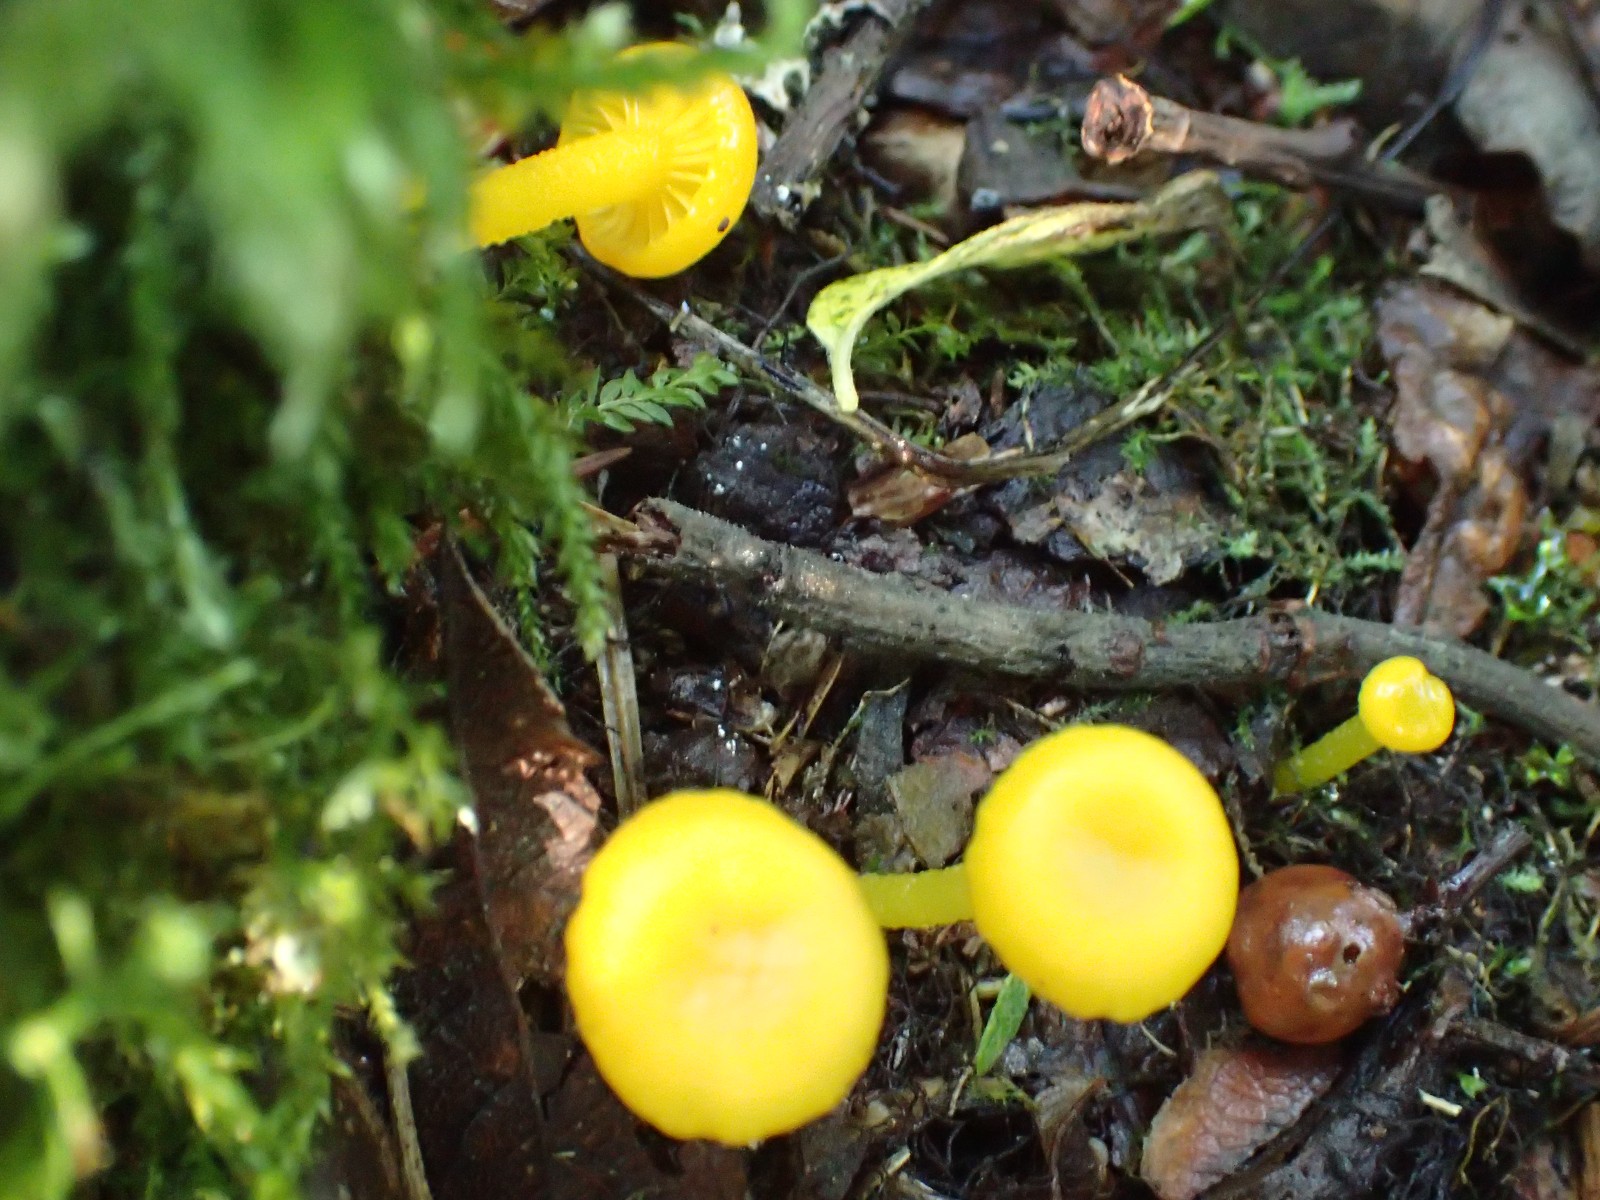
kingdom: Fungi
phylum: Basidiomycota
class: Agaricomycetes
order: Agaricales
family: Hygrophoraceae
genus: Gloioxanthomyces
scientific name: Gloioxanthomyces vitellinus
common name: kromgul vokshat
